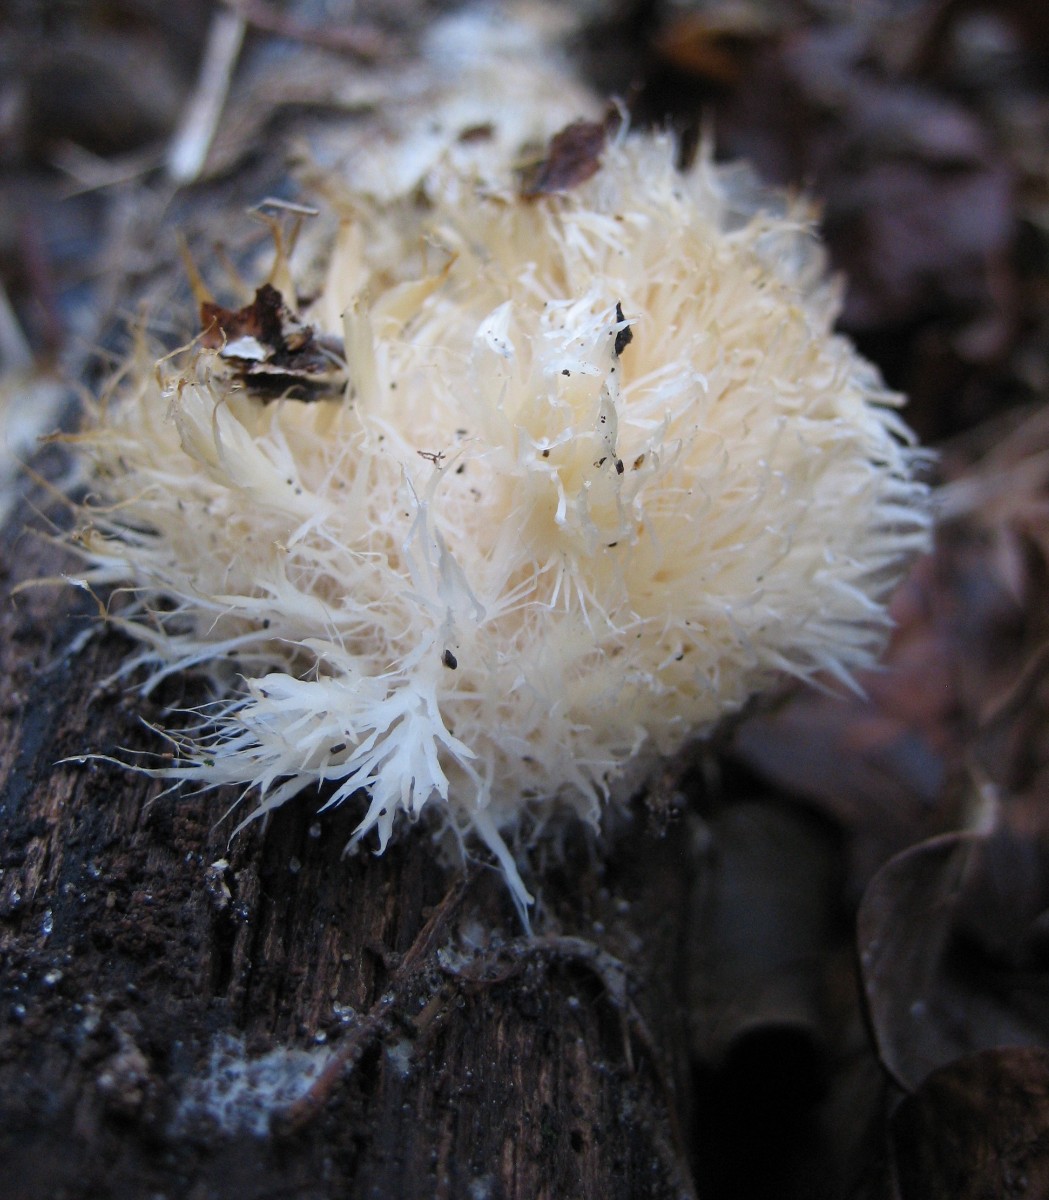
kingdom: Fungi
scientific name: Fungi
